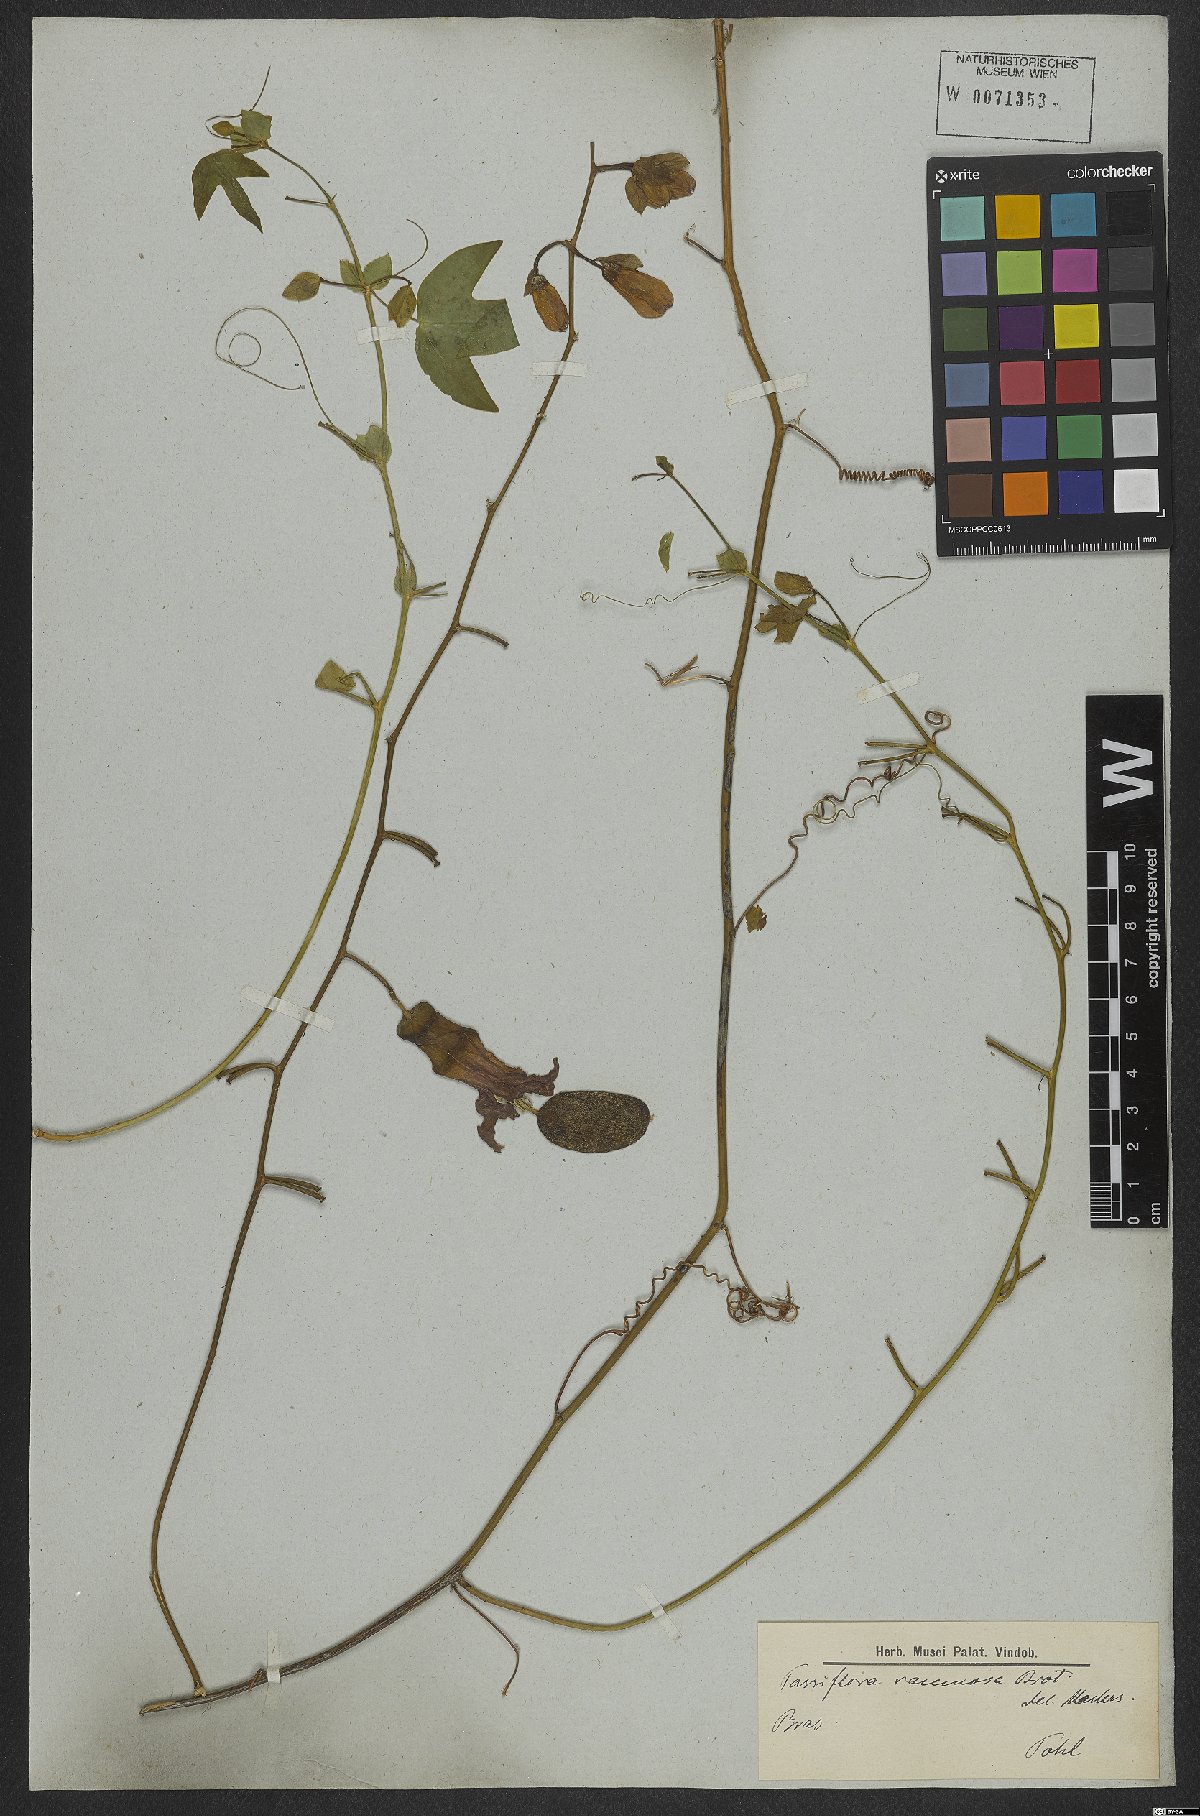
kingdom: Plantae
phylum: Tracheophyta
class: Magnoliopsida
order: Malpighiales
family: Passifloraceae
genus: Passiflora
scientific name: Passiflora racemosa
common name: Red passionflower
